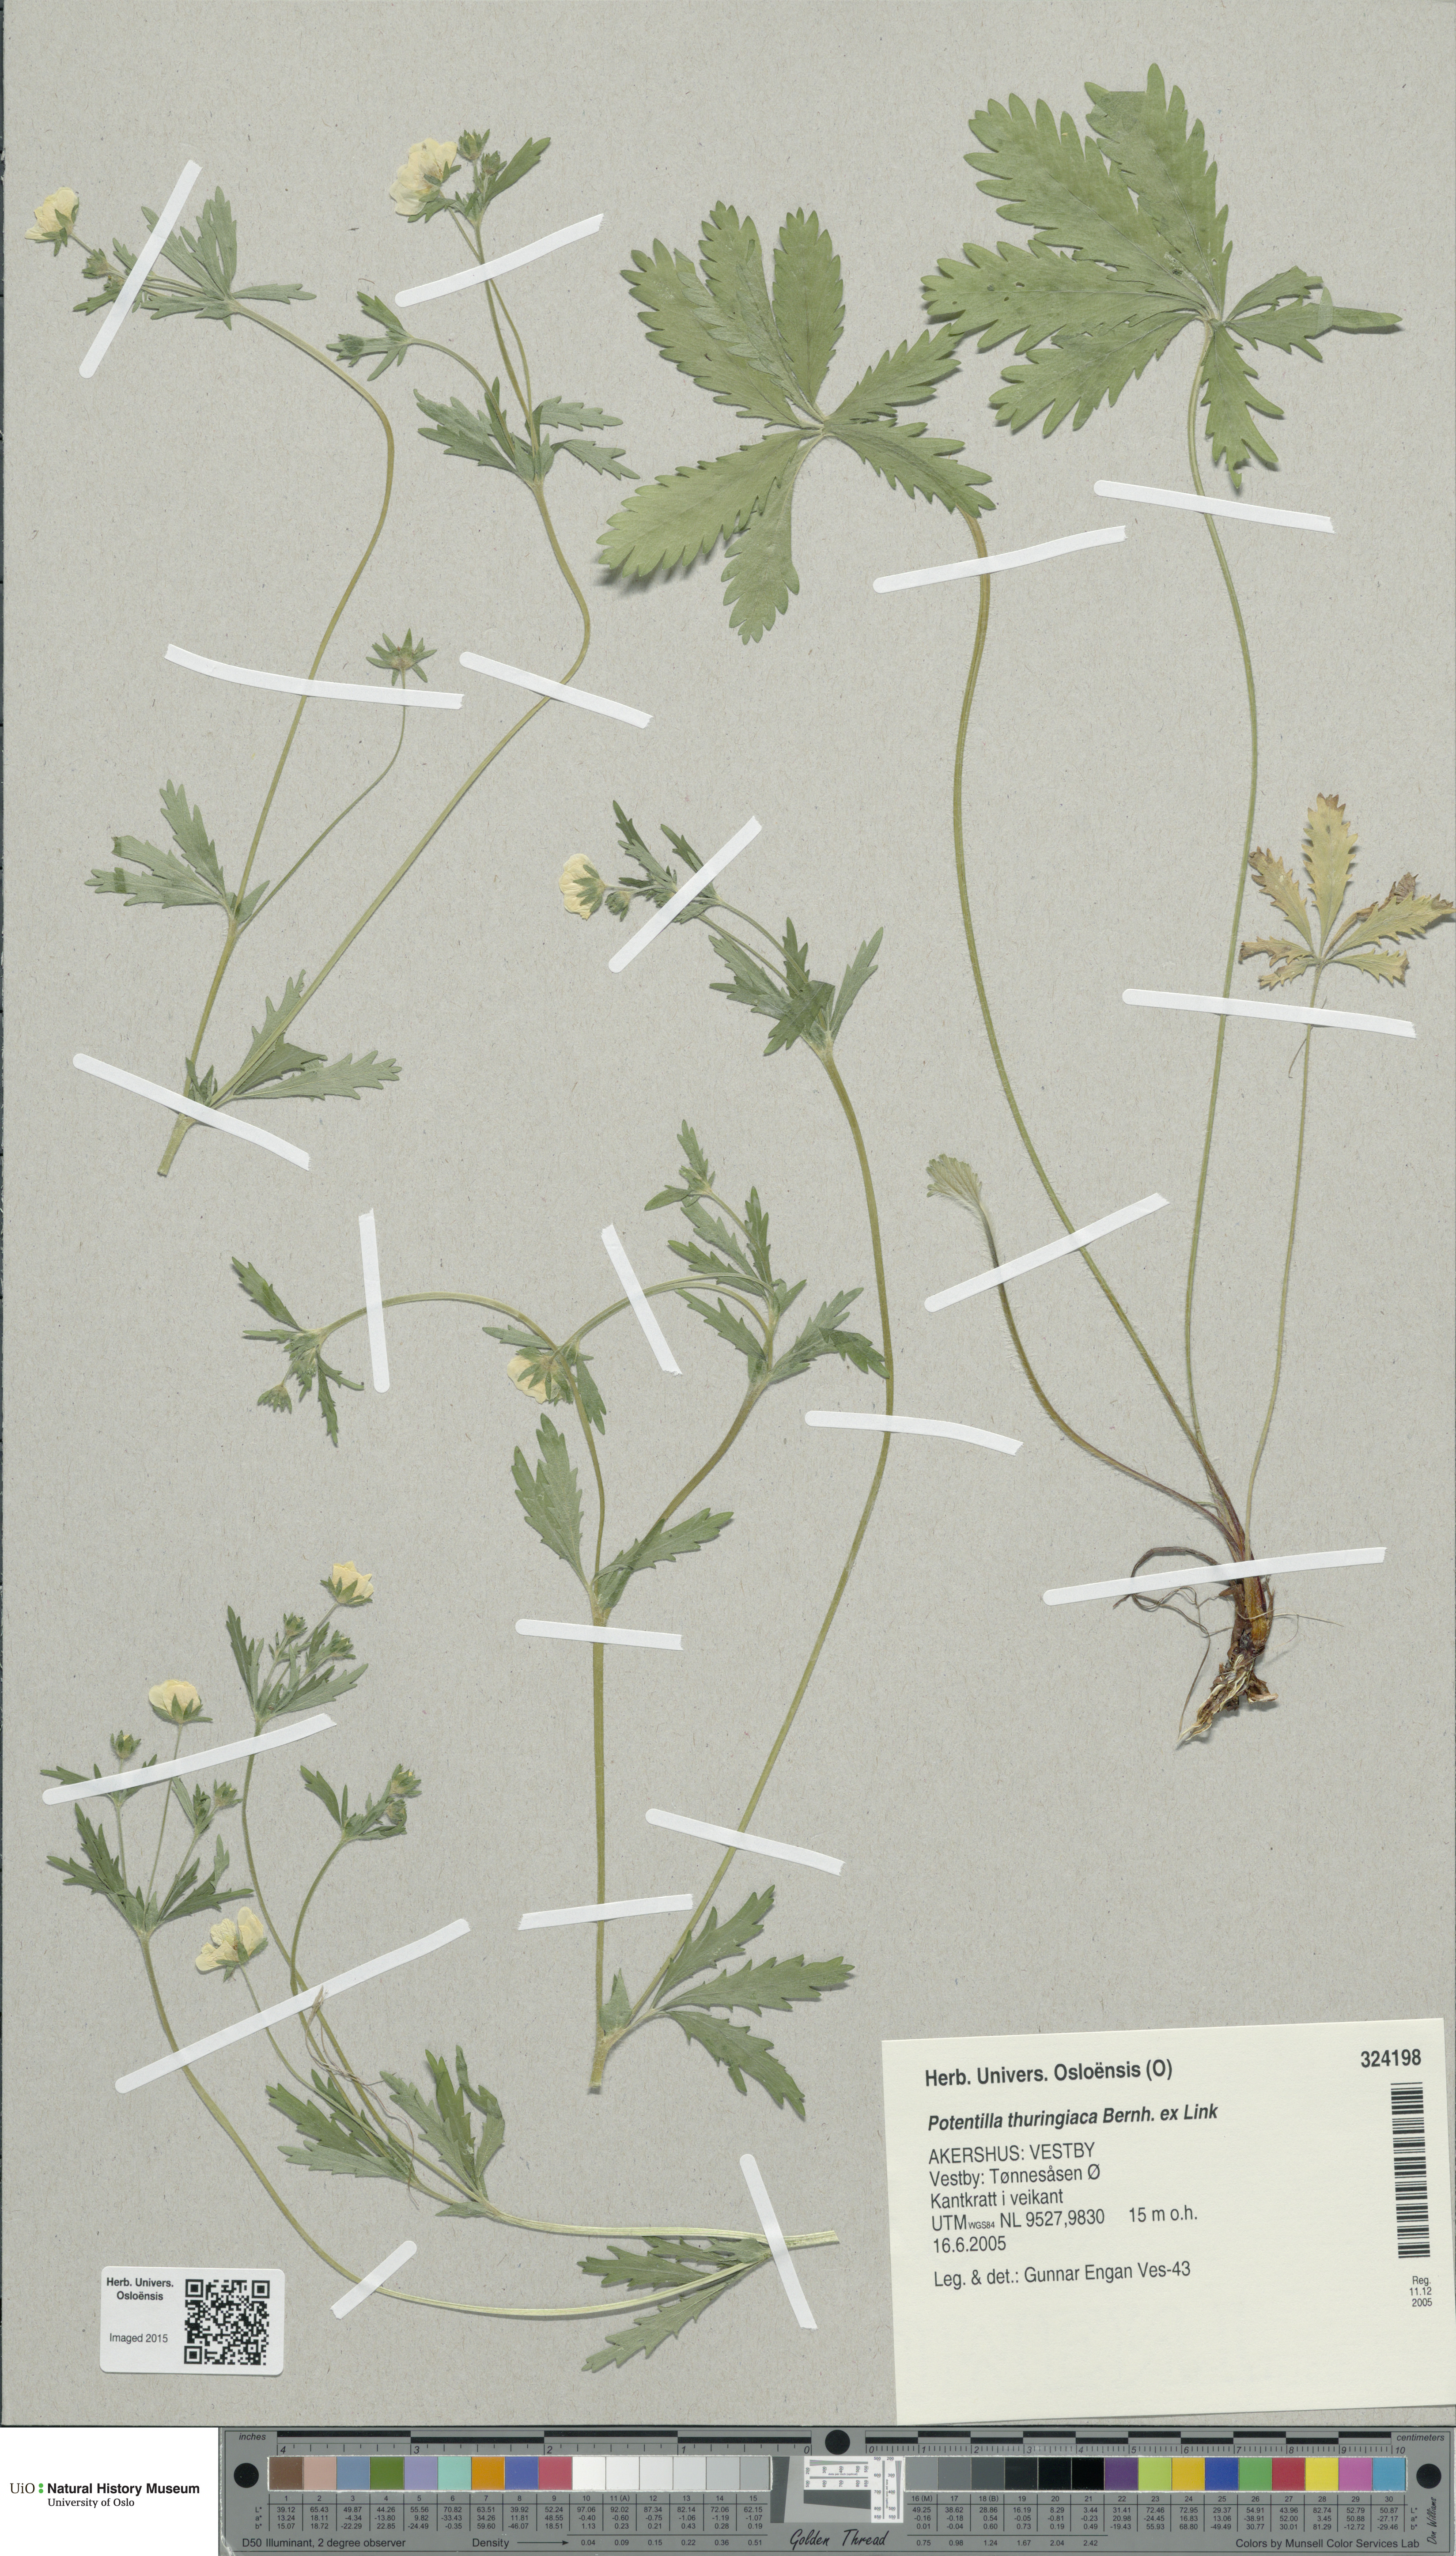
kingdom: Plantae
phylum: Tracheophyta
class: Magnoliopsida
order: Rosales
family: Rosaceae
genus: Potentilla
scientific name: Potentilla thuringiaca
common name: European cinquefoil
